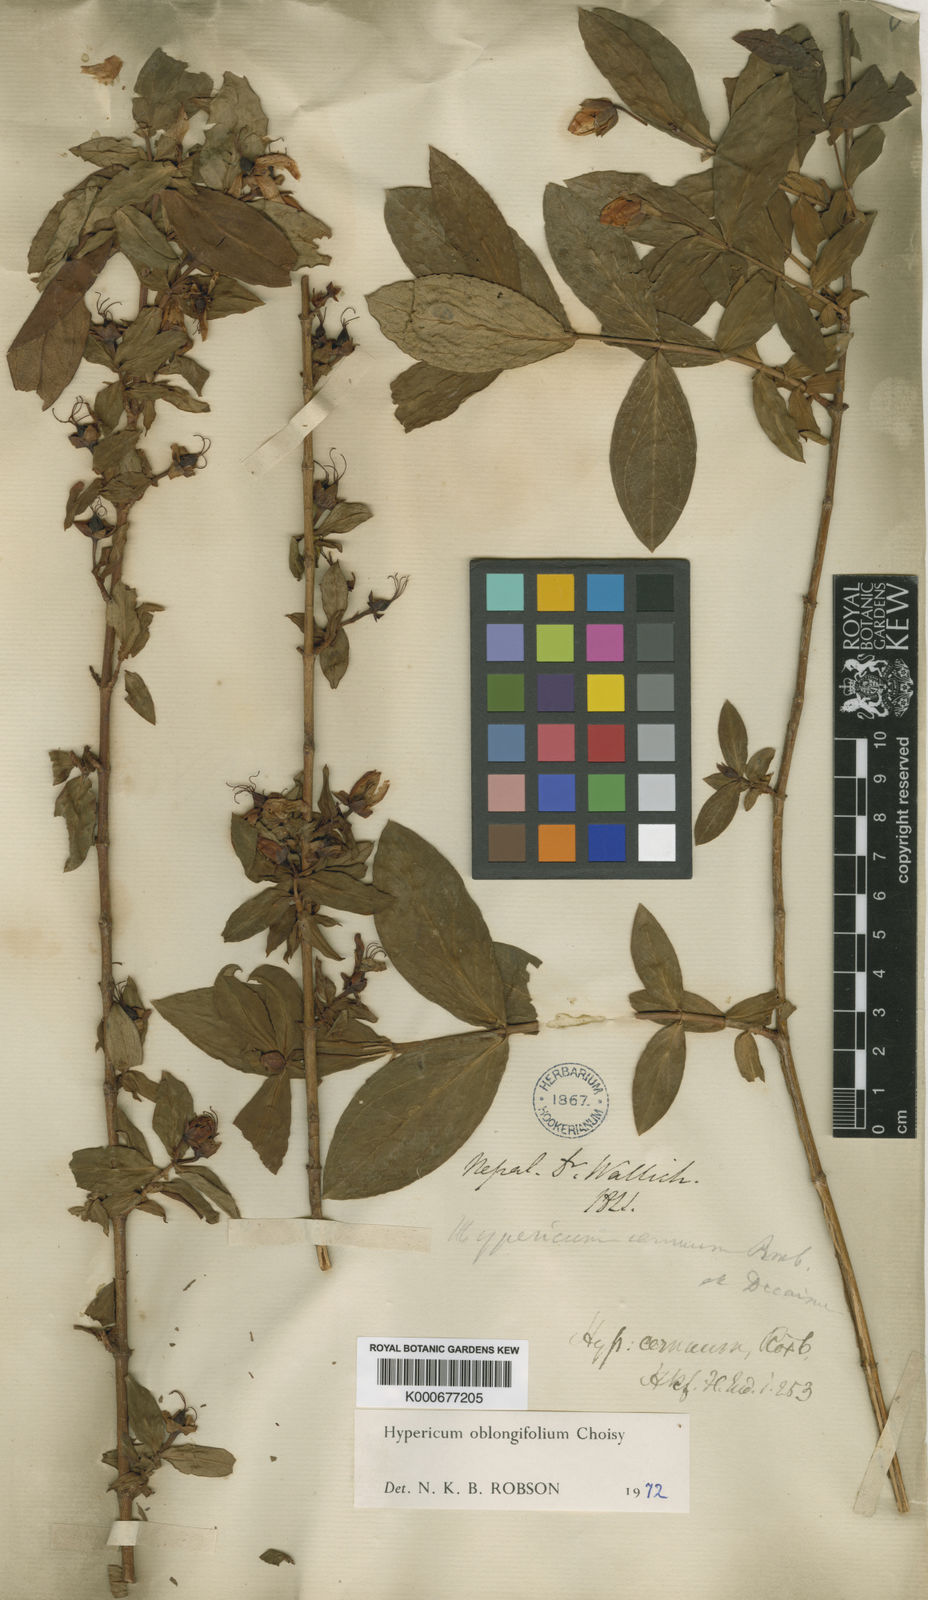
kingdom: Plantae
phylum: Tracheophyta
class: Magnoliopsida
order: Malpighiales
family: Hypericaceae
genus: Hypericum
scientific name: Hypericum oblongifolium
